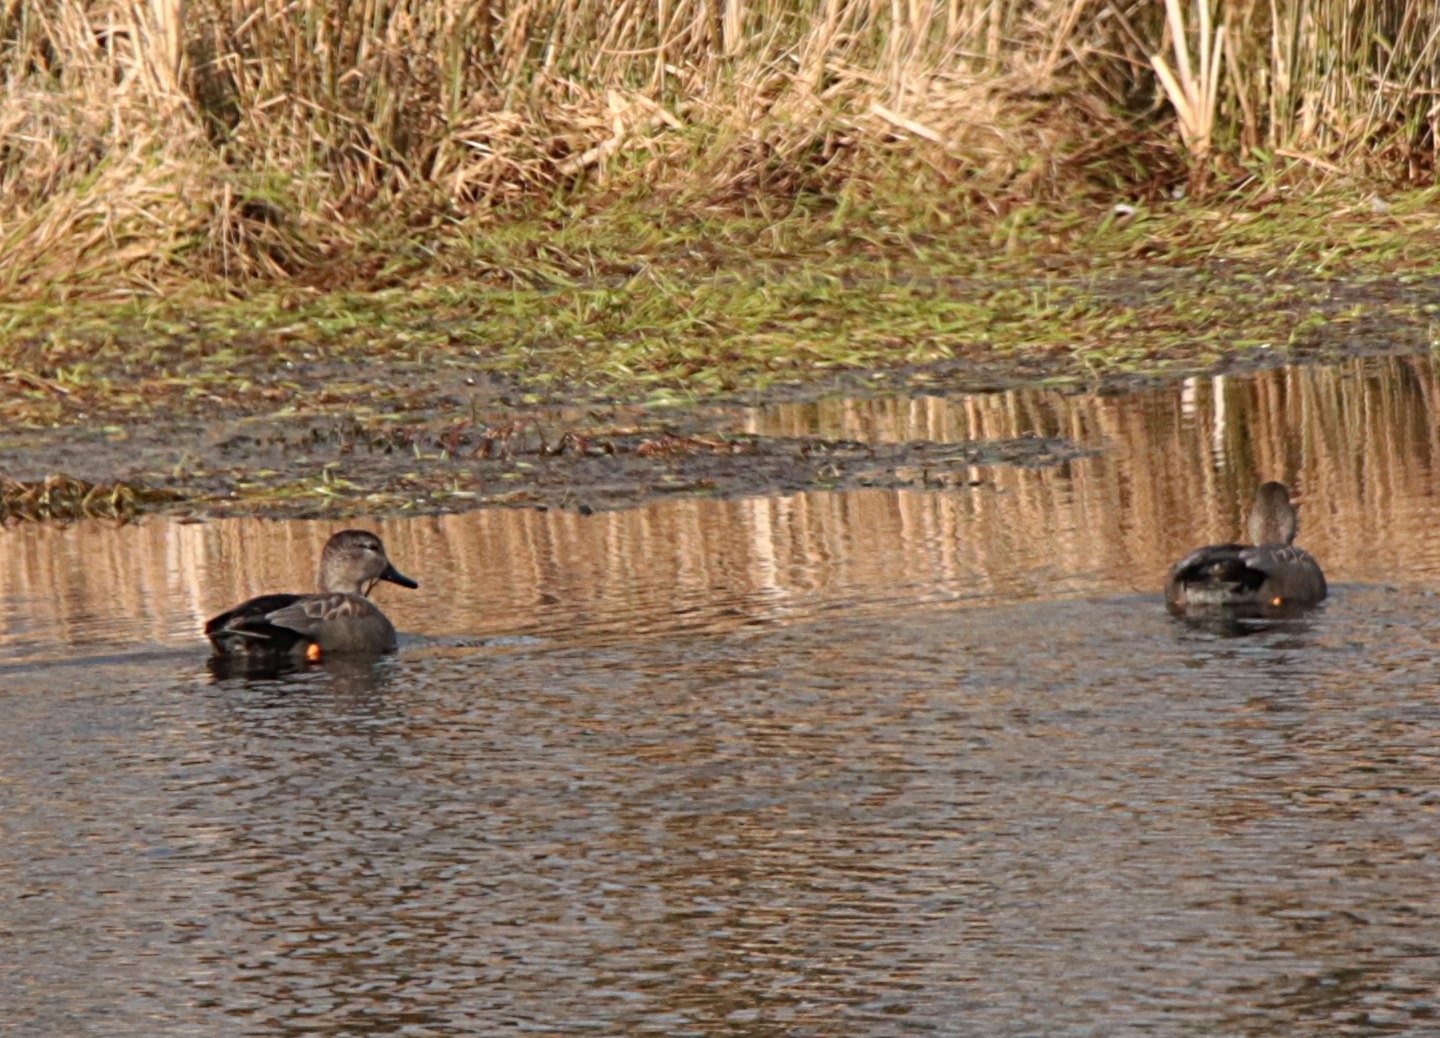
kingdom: Animalia
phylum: Chordata
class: Aves
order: Anseriformes
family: Anatidae
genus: Mareca
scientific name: Mareca strepera
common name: Knarand
